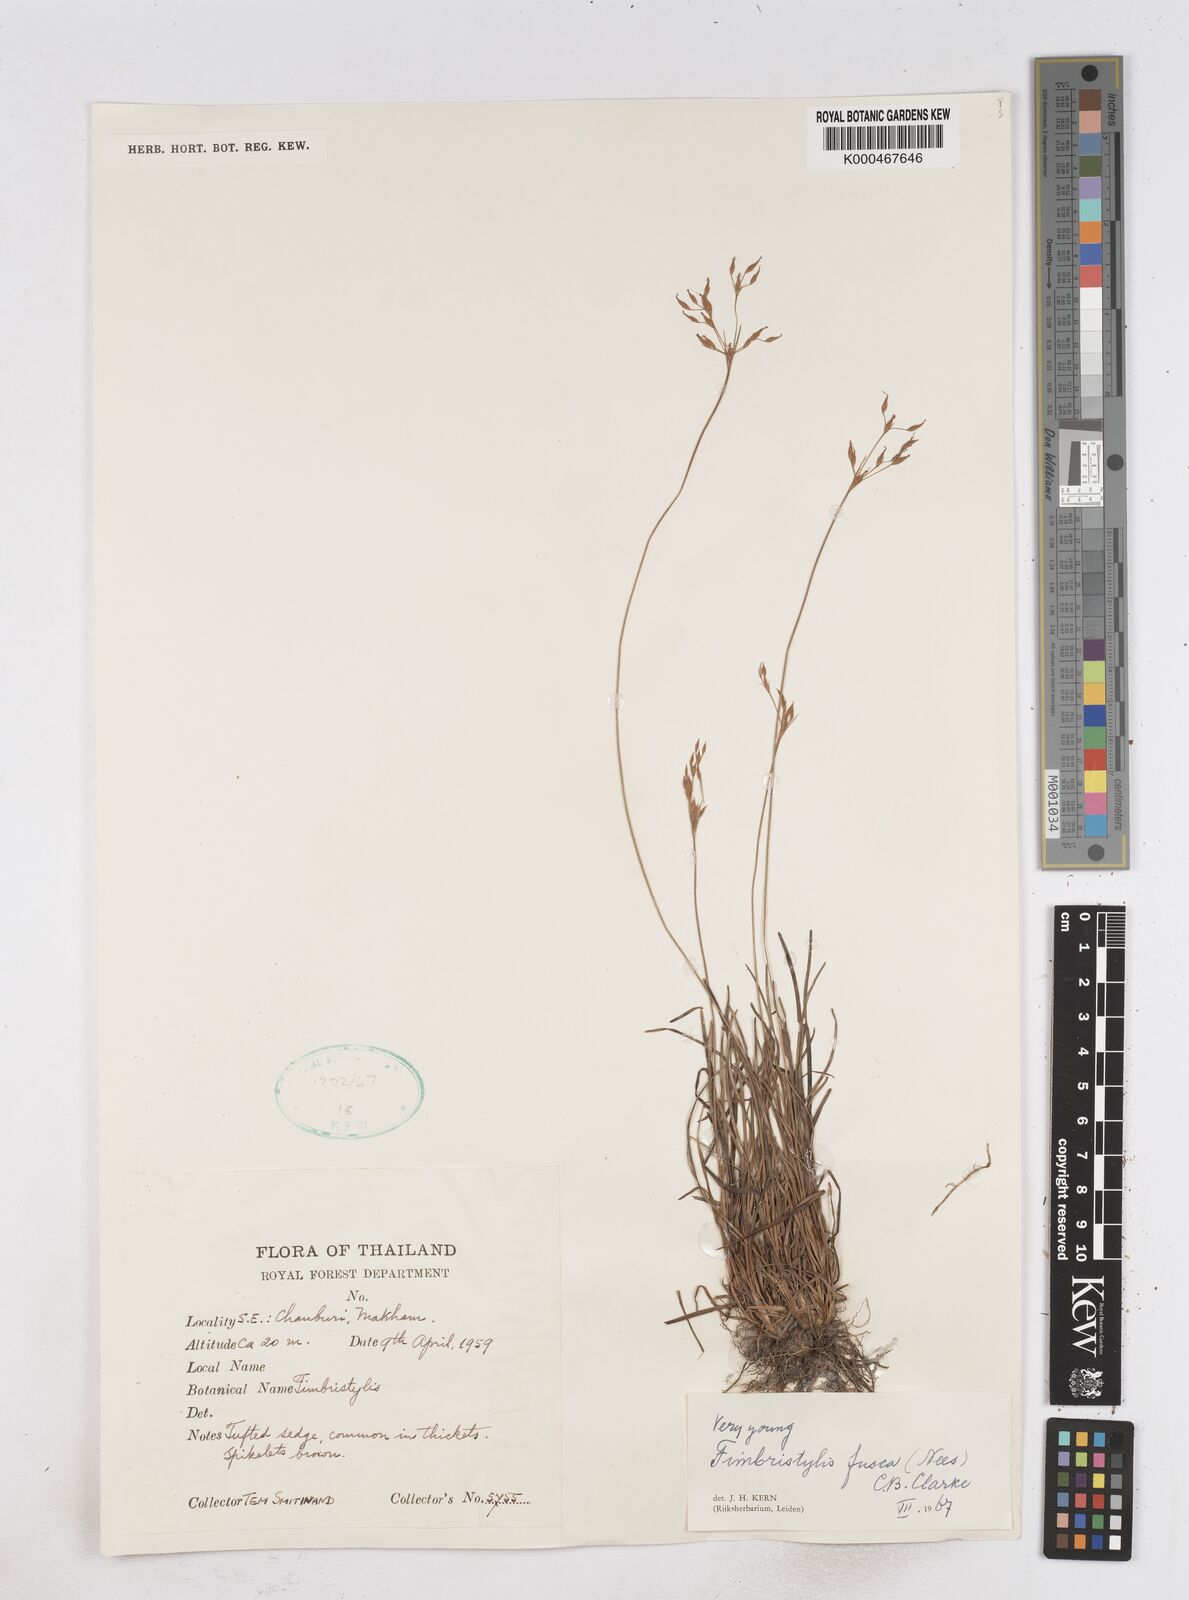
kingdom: Plantae
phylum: Tracheophyta
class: Liliopsida
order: Poales
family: Cyperaceae
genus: Fimbristylis
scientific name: Fimbristylis fusca
